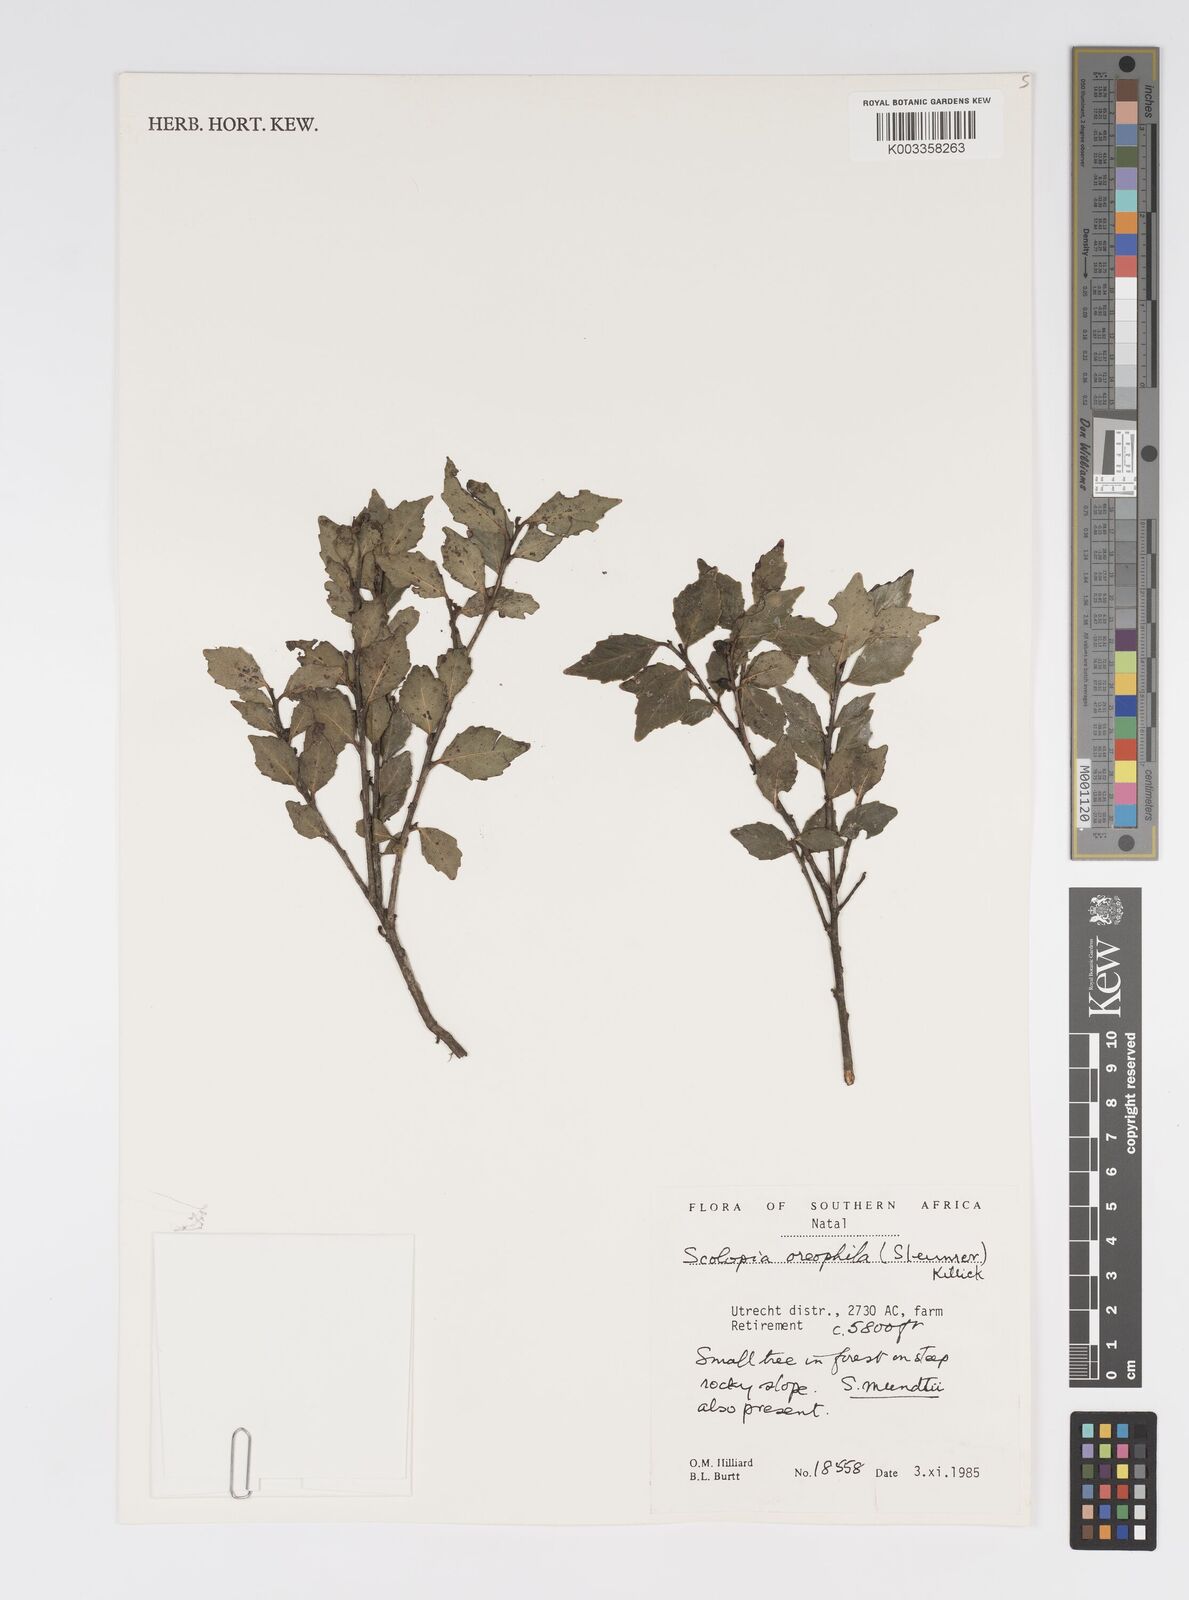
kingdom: Plantae
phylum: Tracheophyta
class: Magnoliopsida
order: Malpighiales
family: Salicaceae
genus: Scolopia
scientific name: Scolopia oreophila
